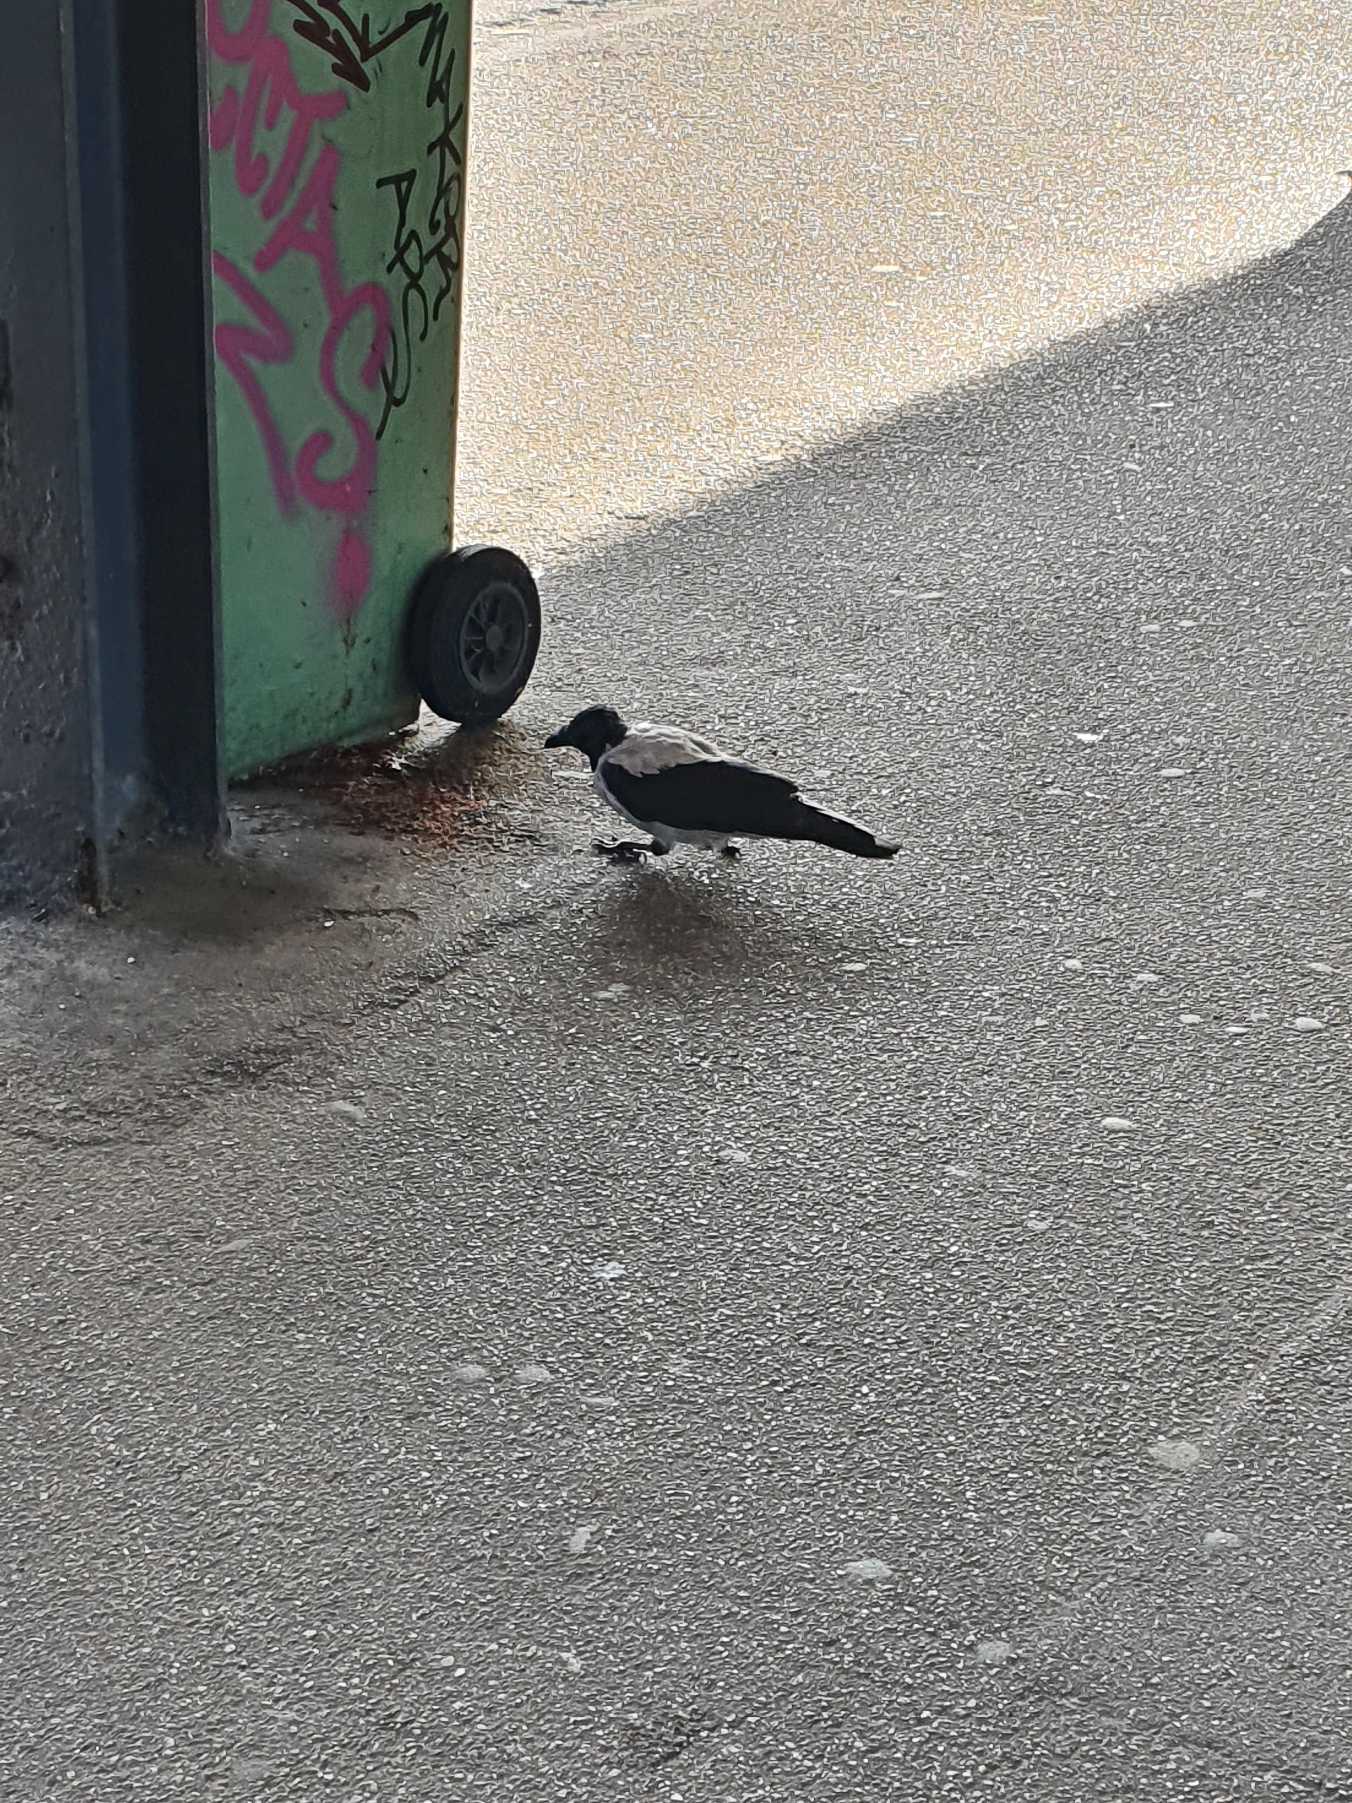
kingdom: Animalia
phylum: Chordata
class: Aves
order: Passeriformes
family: Corvidae
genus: Corvus
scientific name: Corvus cornix
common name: Gråkrage
